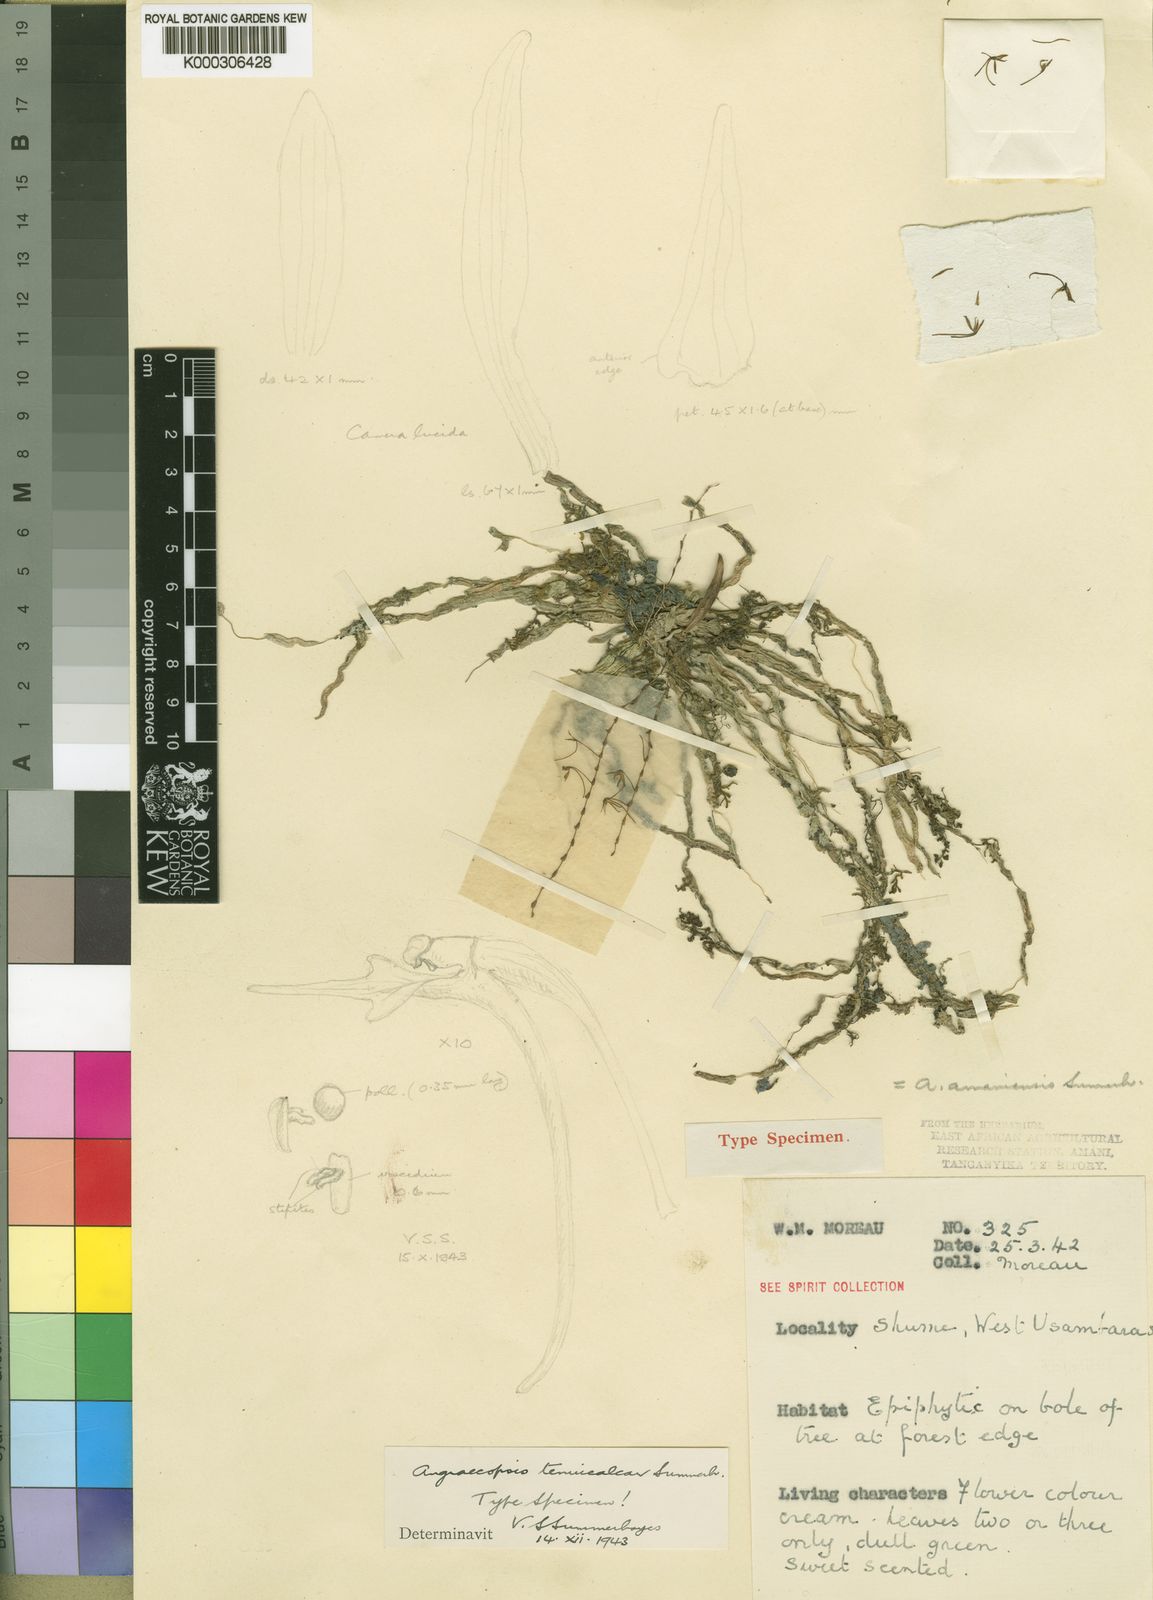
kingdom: Plantae
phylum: Tracheophyta
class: Liliopsida
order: Asparagales
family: Orchidaceae
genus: Sphyrarhynchus
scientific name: Sphyrarhynchus amaniense
